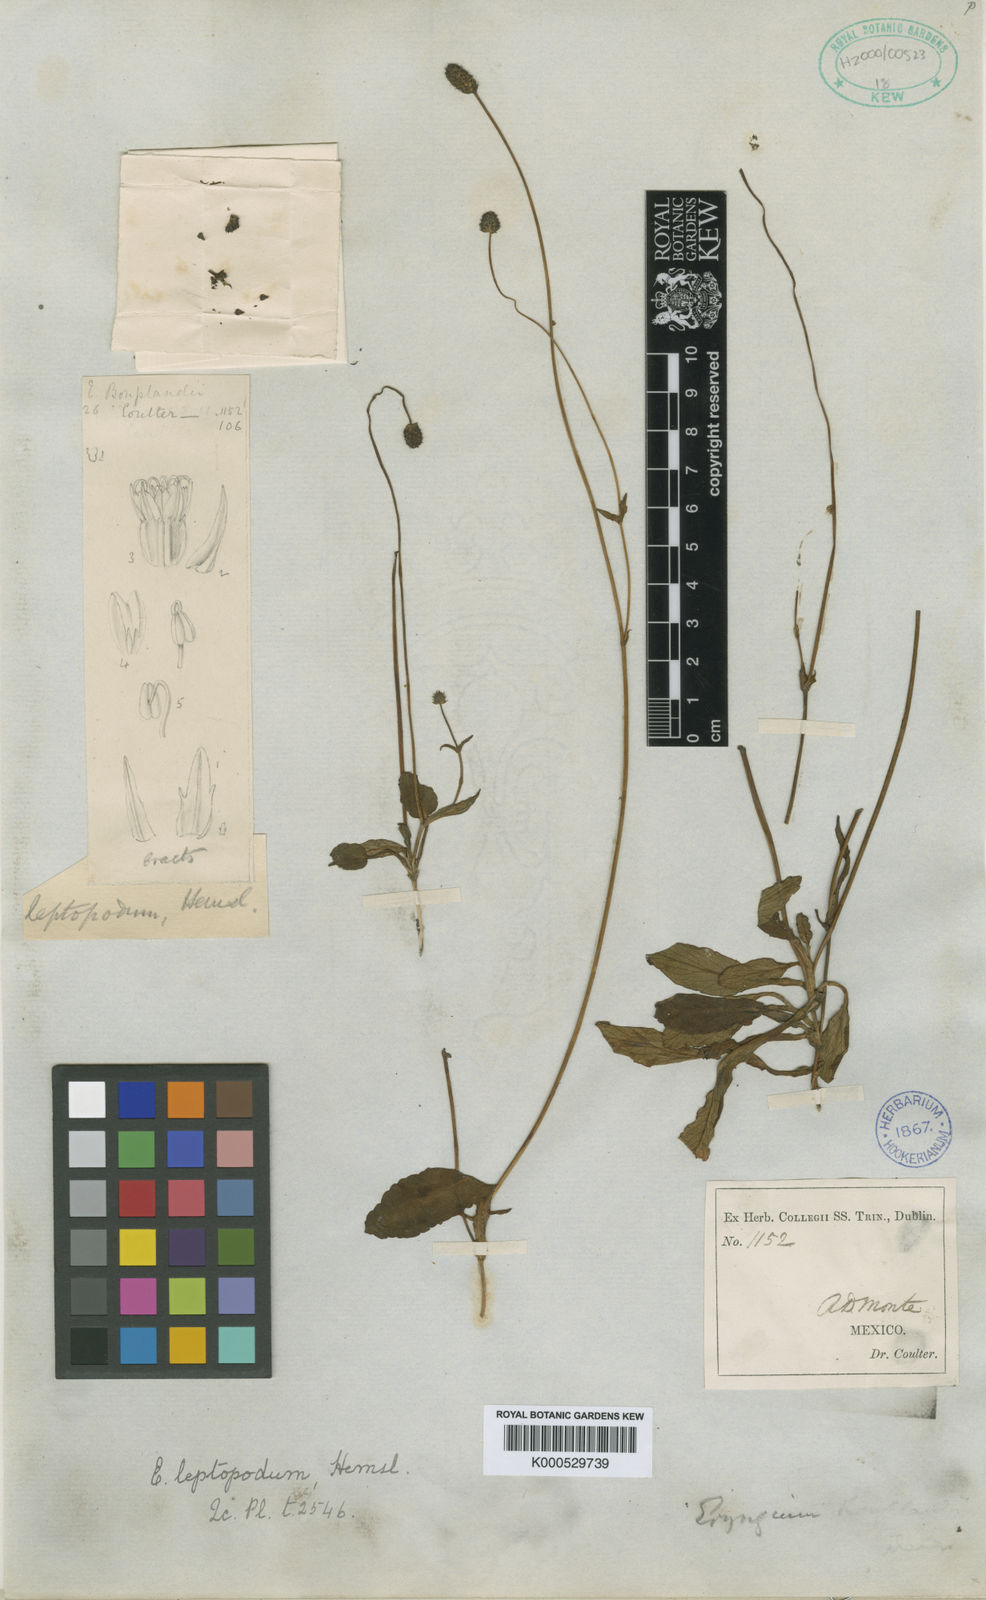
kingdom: Plantae
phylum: Tracheophyta
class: Magnoliopsida
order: Apiales
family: Apiaceae
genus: Eryngium
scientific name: Eryngium bonplandii
